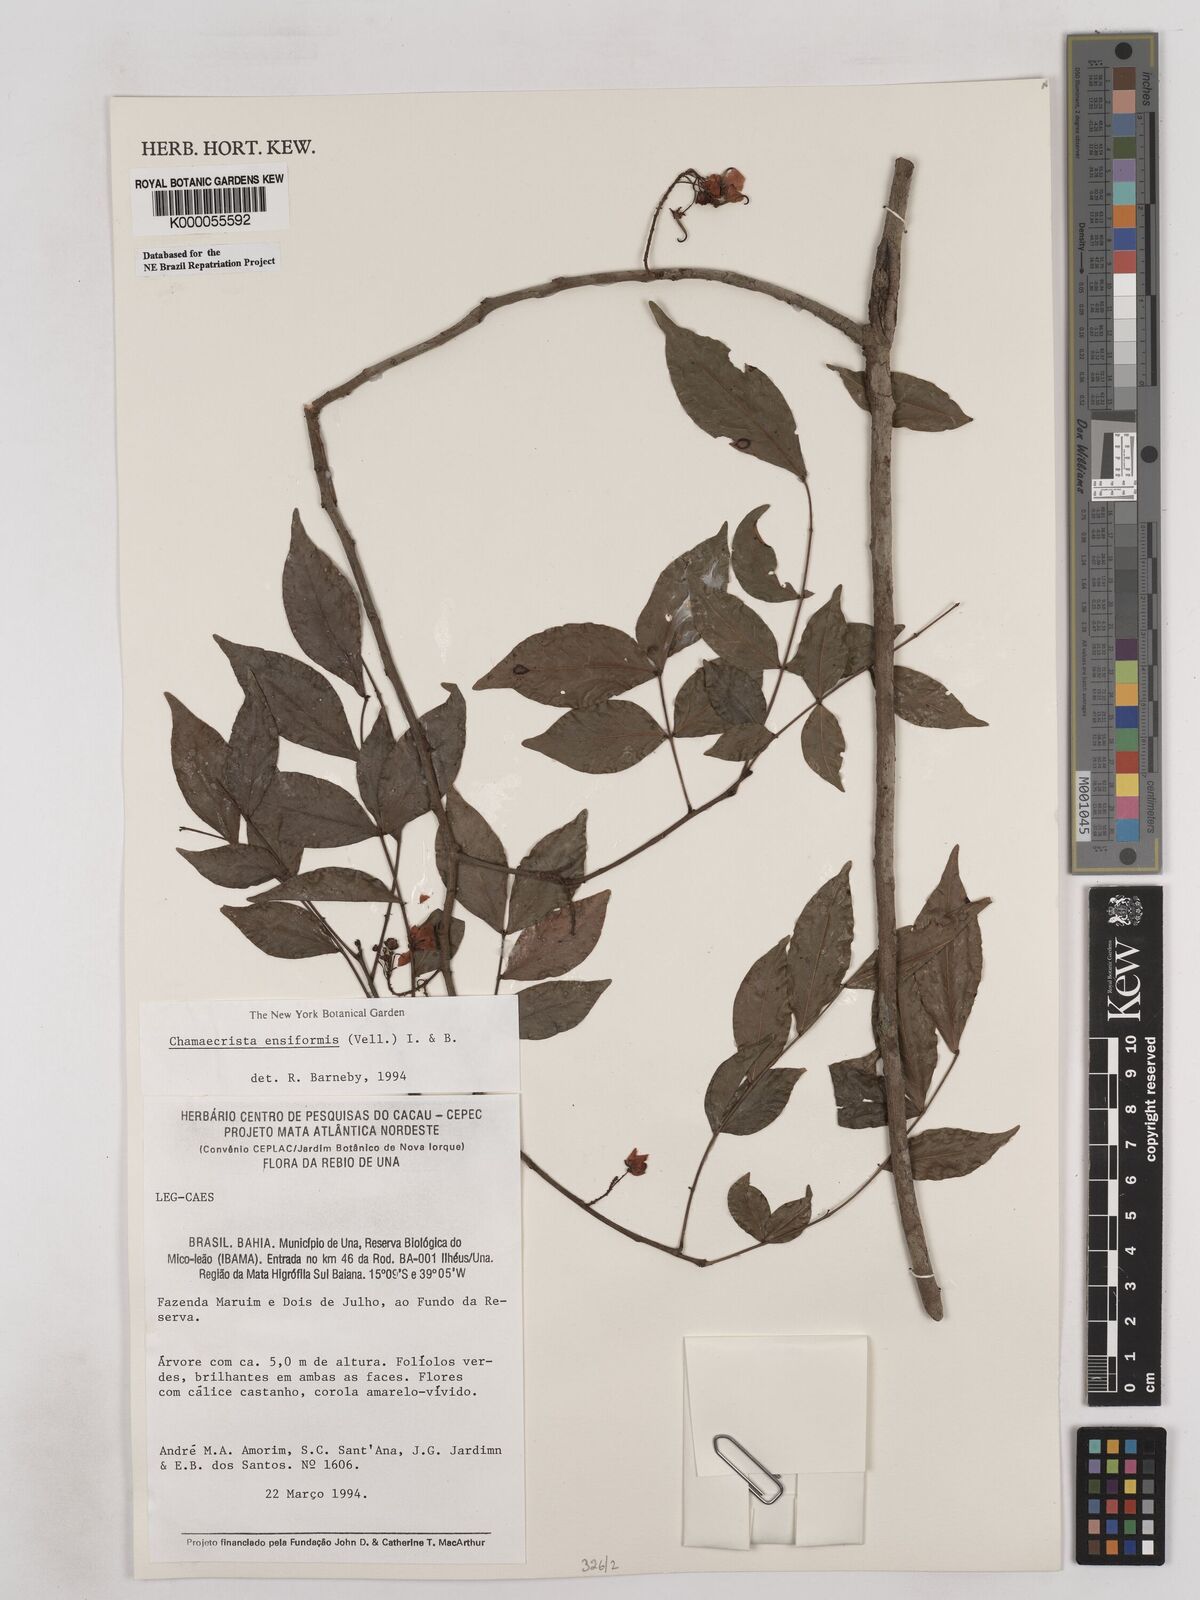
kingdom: Plantae
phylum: Tracheophyta
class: Magnoliopsida
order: Fabales
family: Fabaceae
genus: Chamaecrista
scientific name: Chamaecrista ensiformis
